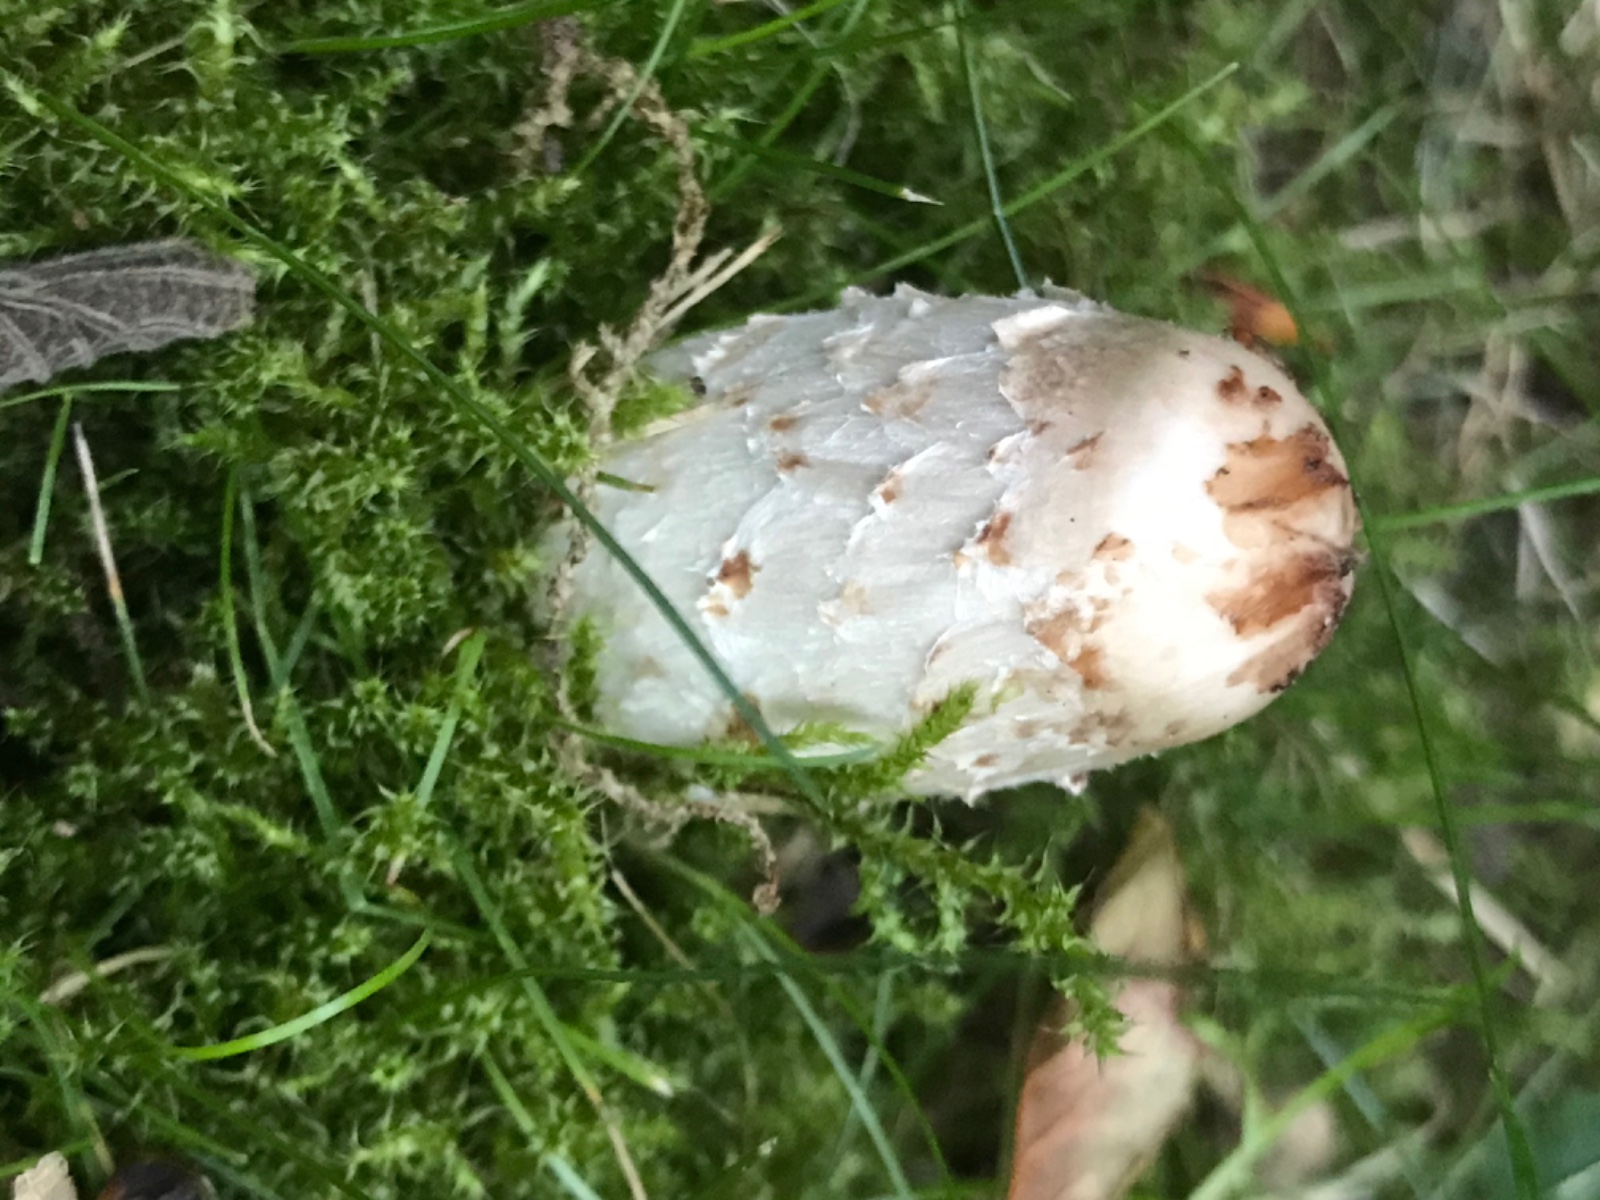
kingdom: Fungi
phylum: Basidiomycota
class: Agaricomycetes
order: Agaricales
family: Agaricaceae
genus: Coprinus
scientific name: Coprinus comatus
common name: stor parykhat
